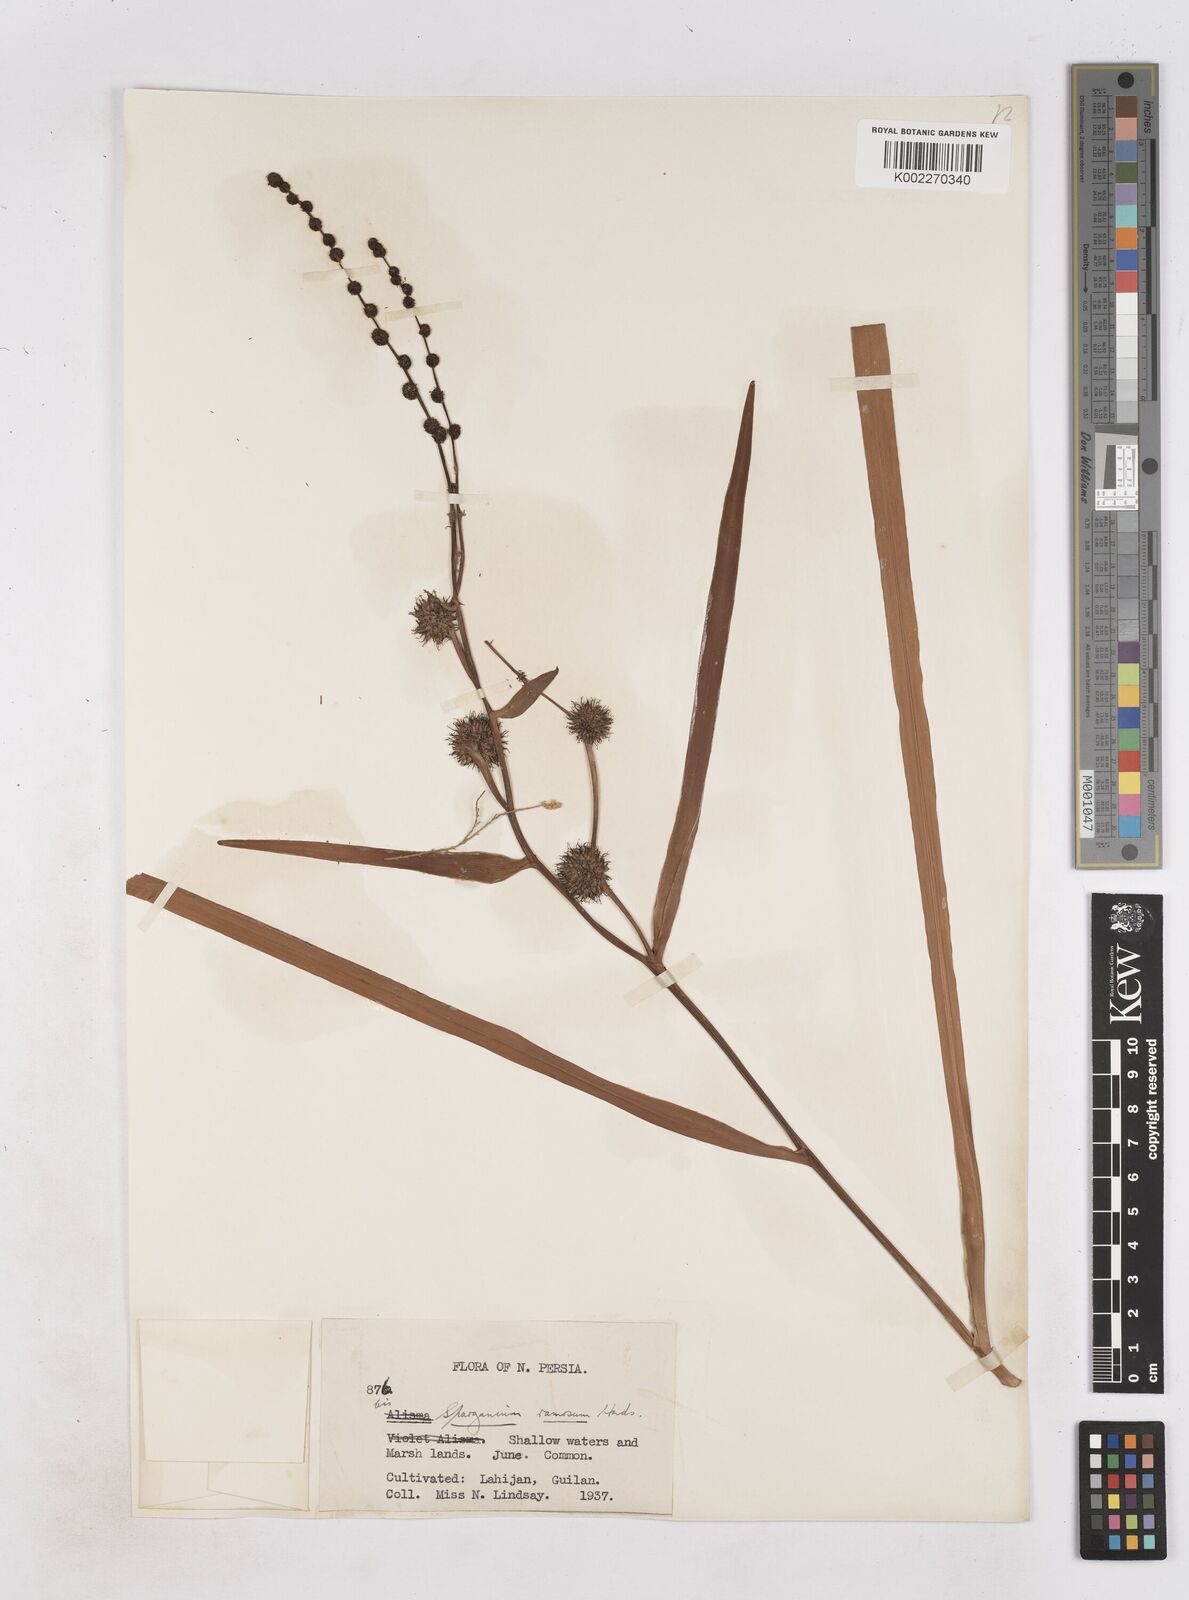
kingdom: Plantae
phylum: Tracheophyta
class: Liliopsida
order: Poales
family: Typhaceae
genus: Sparganium
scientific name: Sparganium erectum
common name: Branched bur-reed
